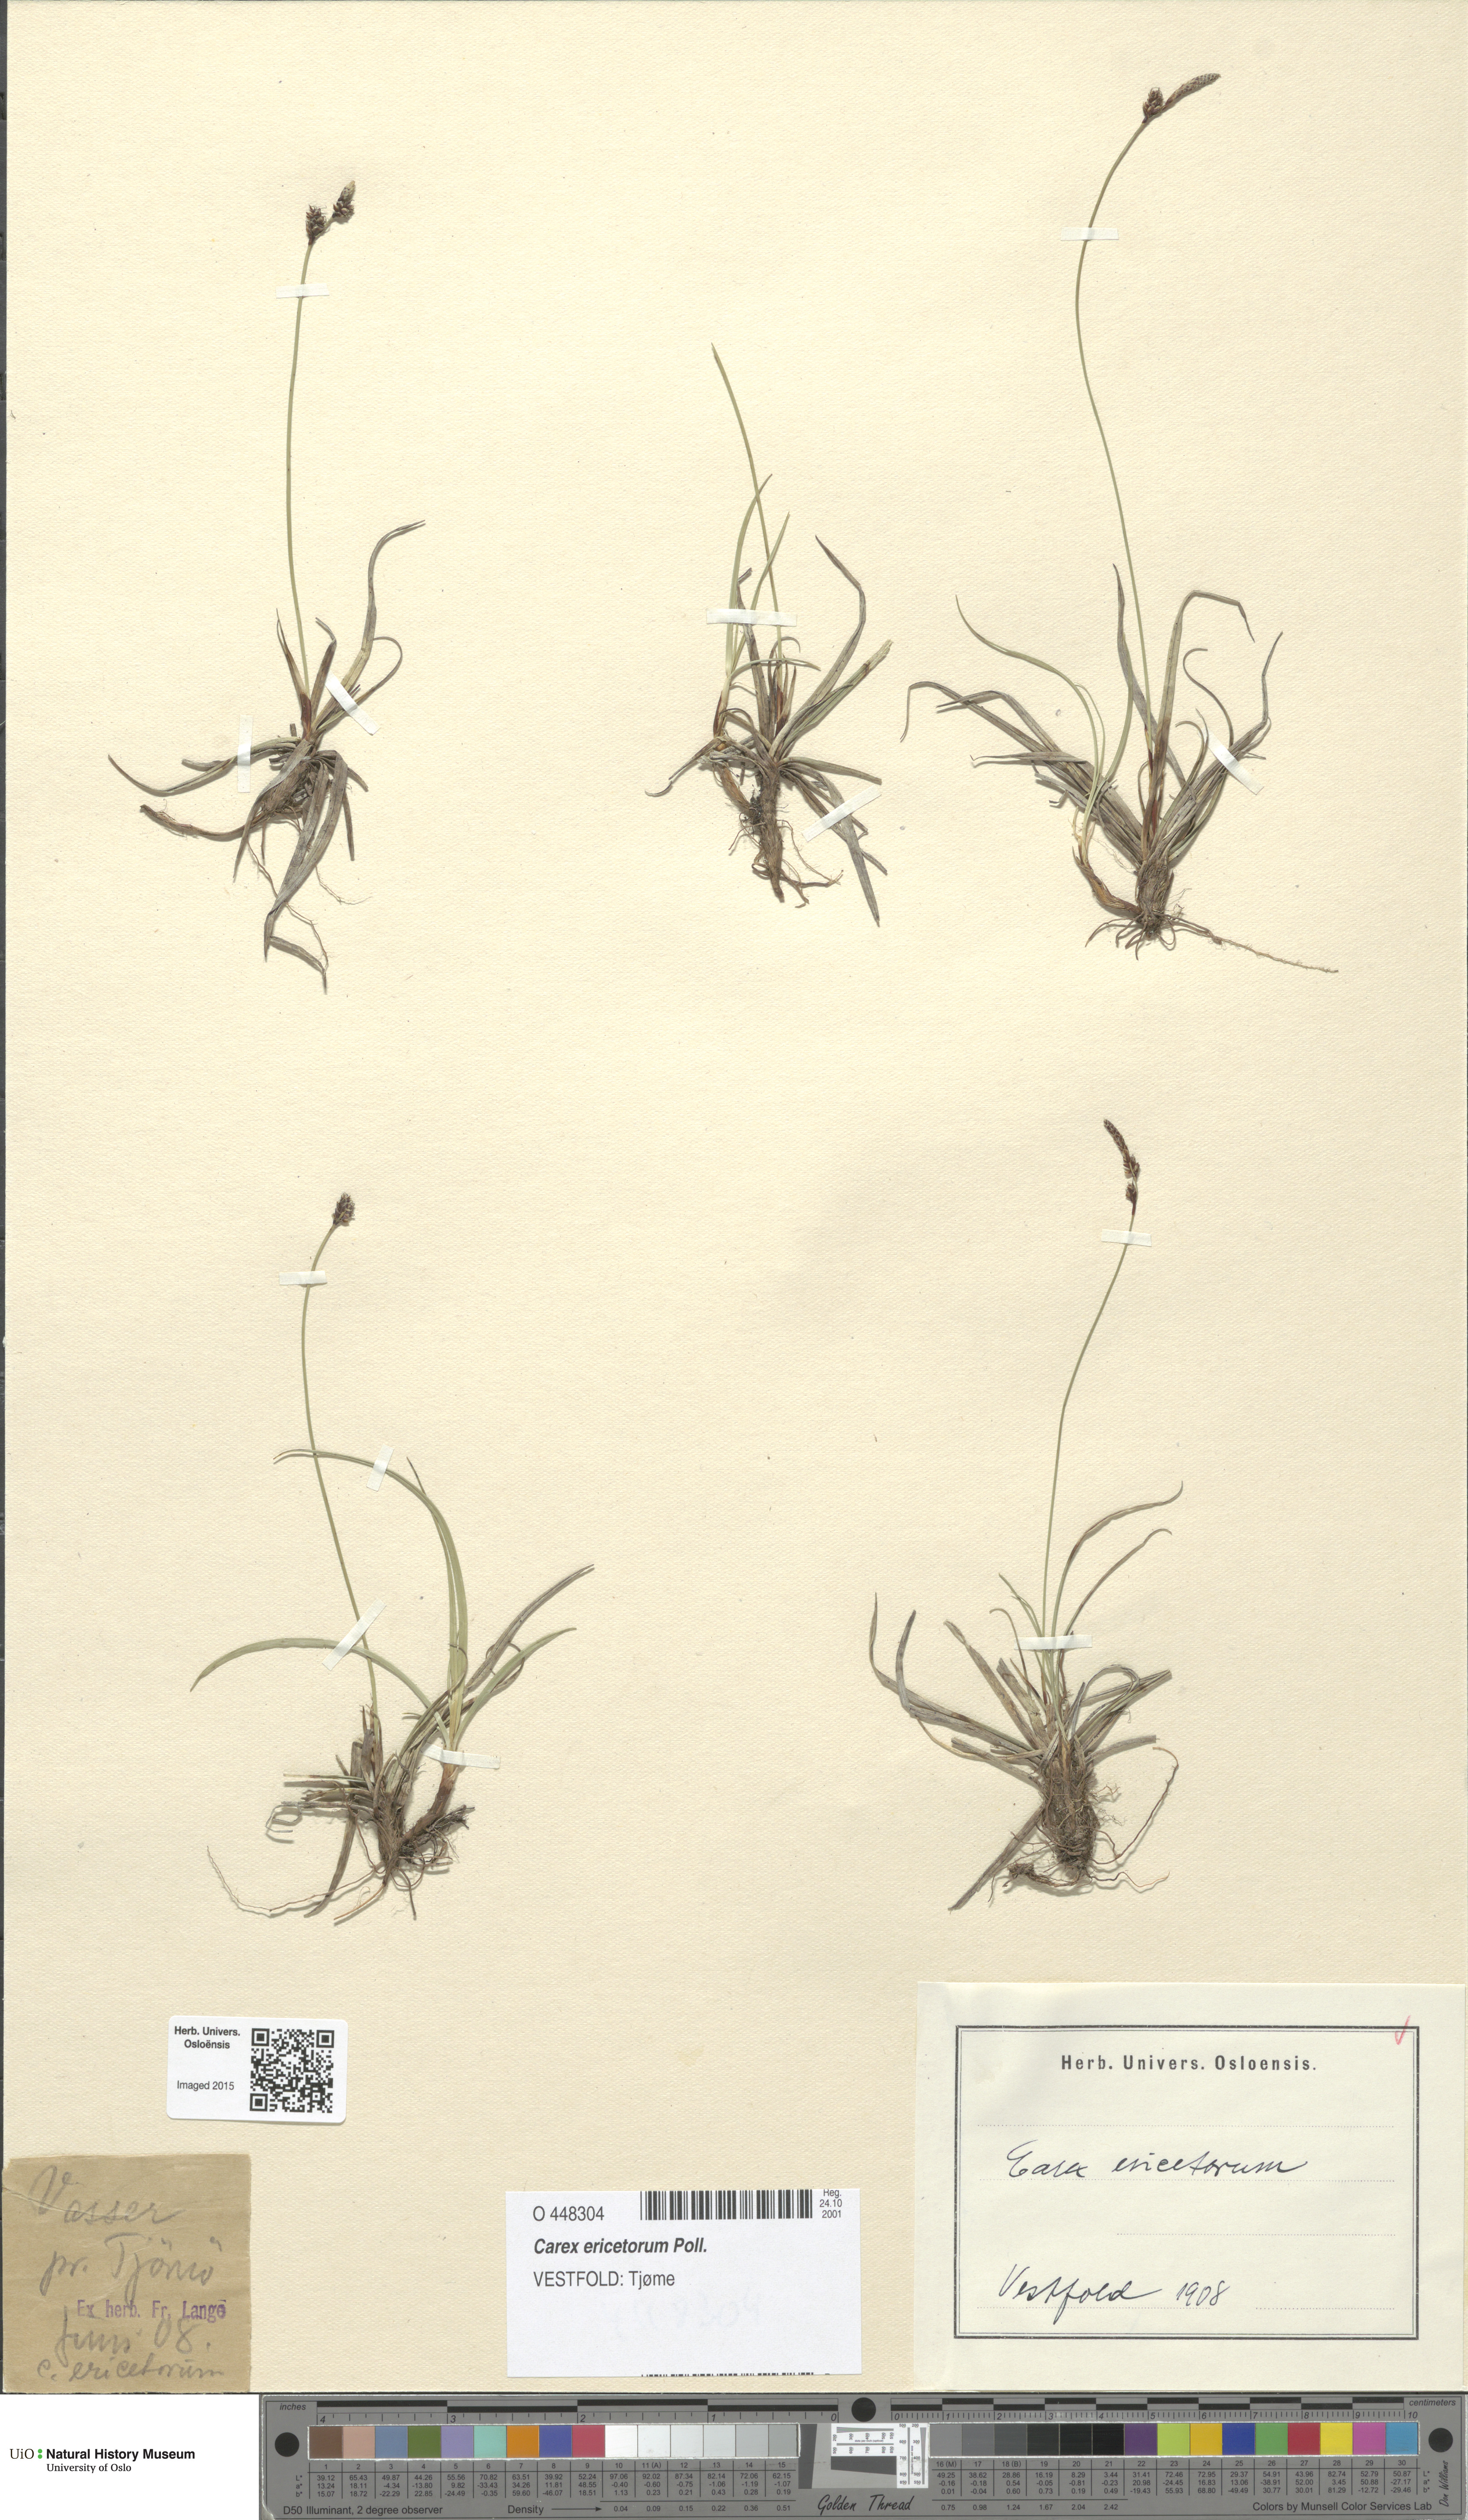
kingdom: Plantae
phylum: Tracheophyta
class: Liliopsida
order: Poales
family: Cyperaceae
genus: Carex
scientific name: Carex ericetorum
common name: Rare spring-sedge
